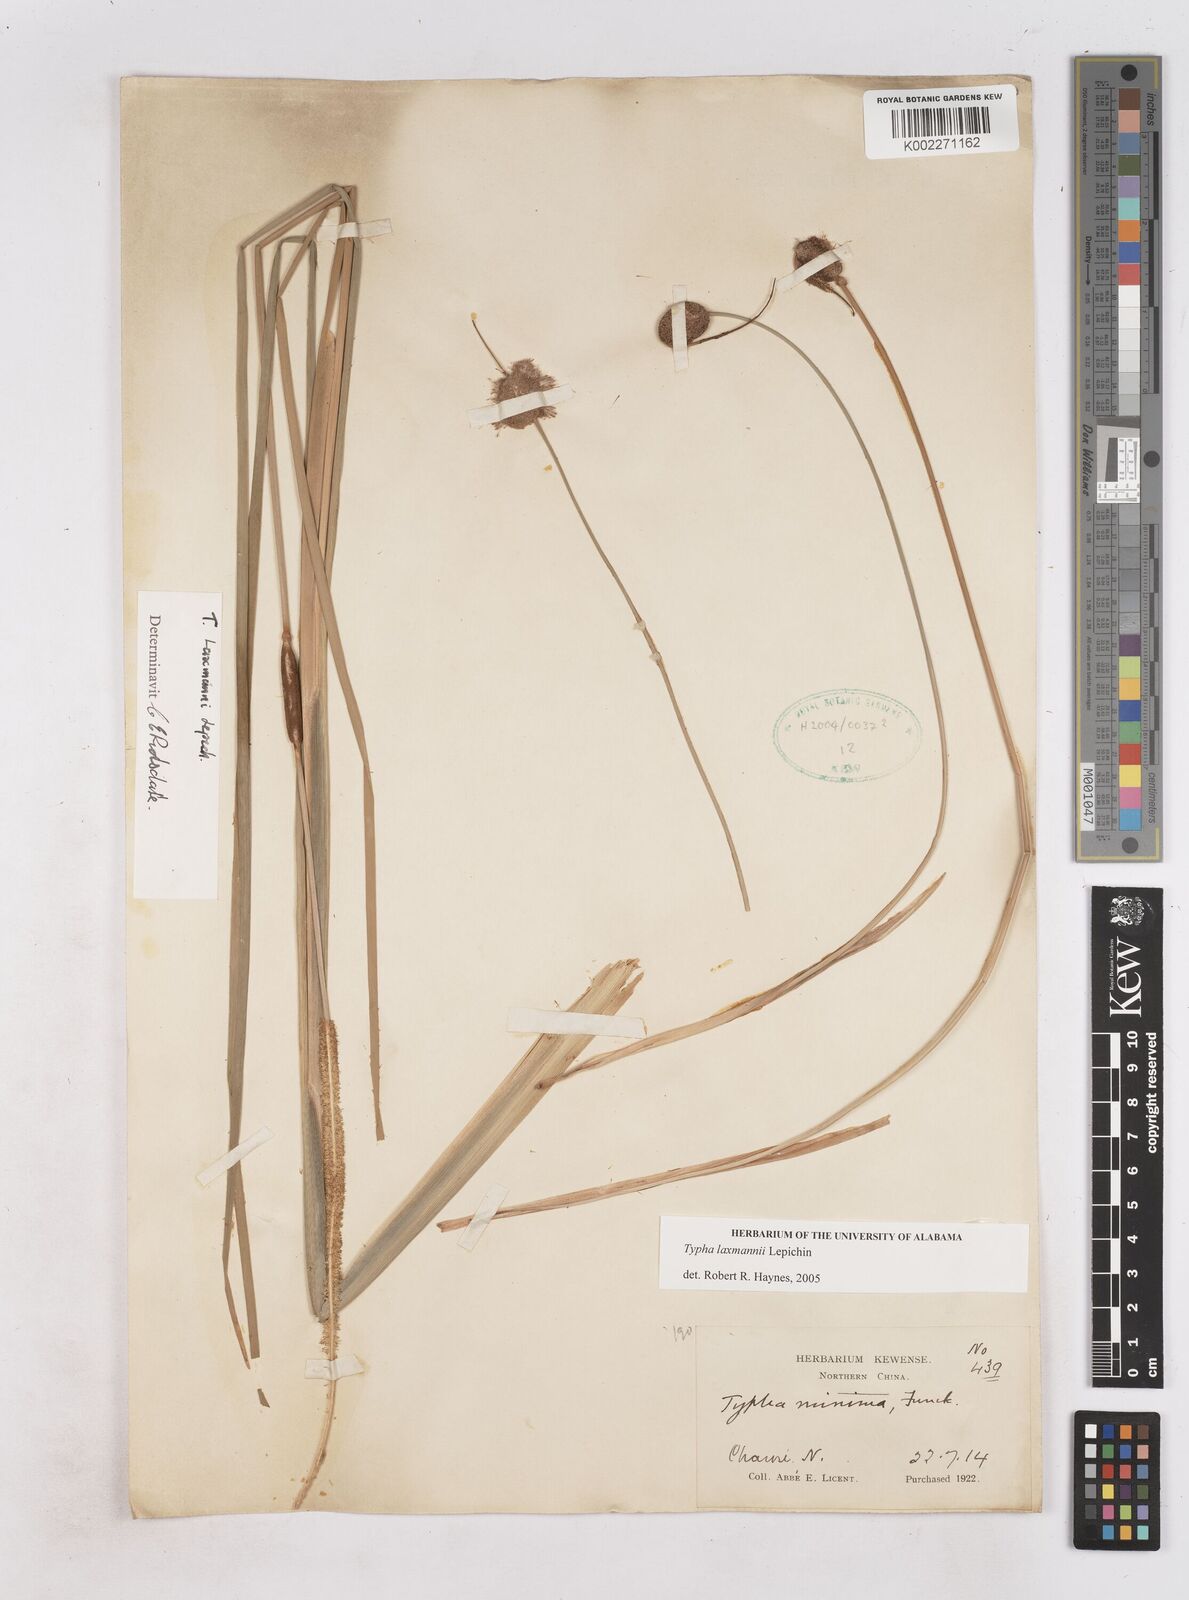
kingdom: Plantae
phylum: Tracheophyta
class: Liliopsida
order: Poales
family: Typhaceae
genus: Typha
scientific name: Typha laxmannii
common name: Laxman’s bulrush
